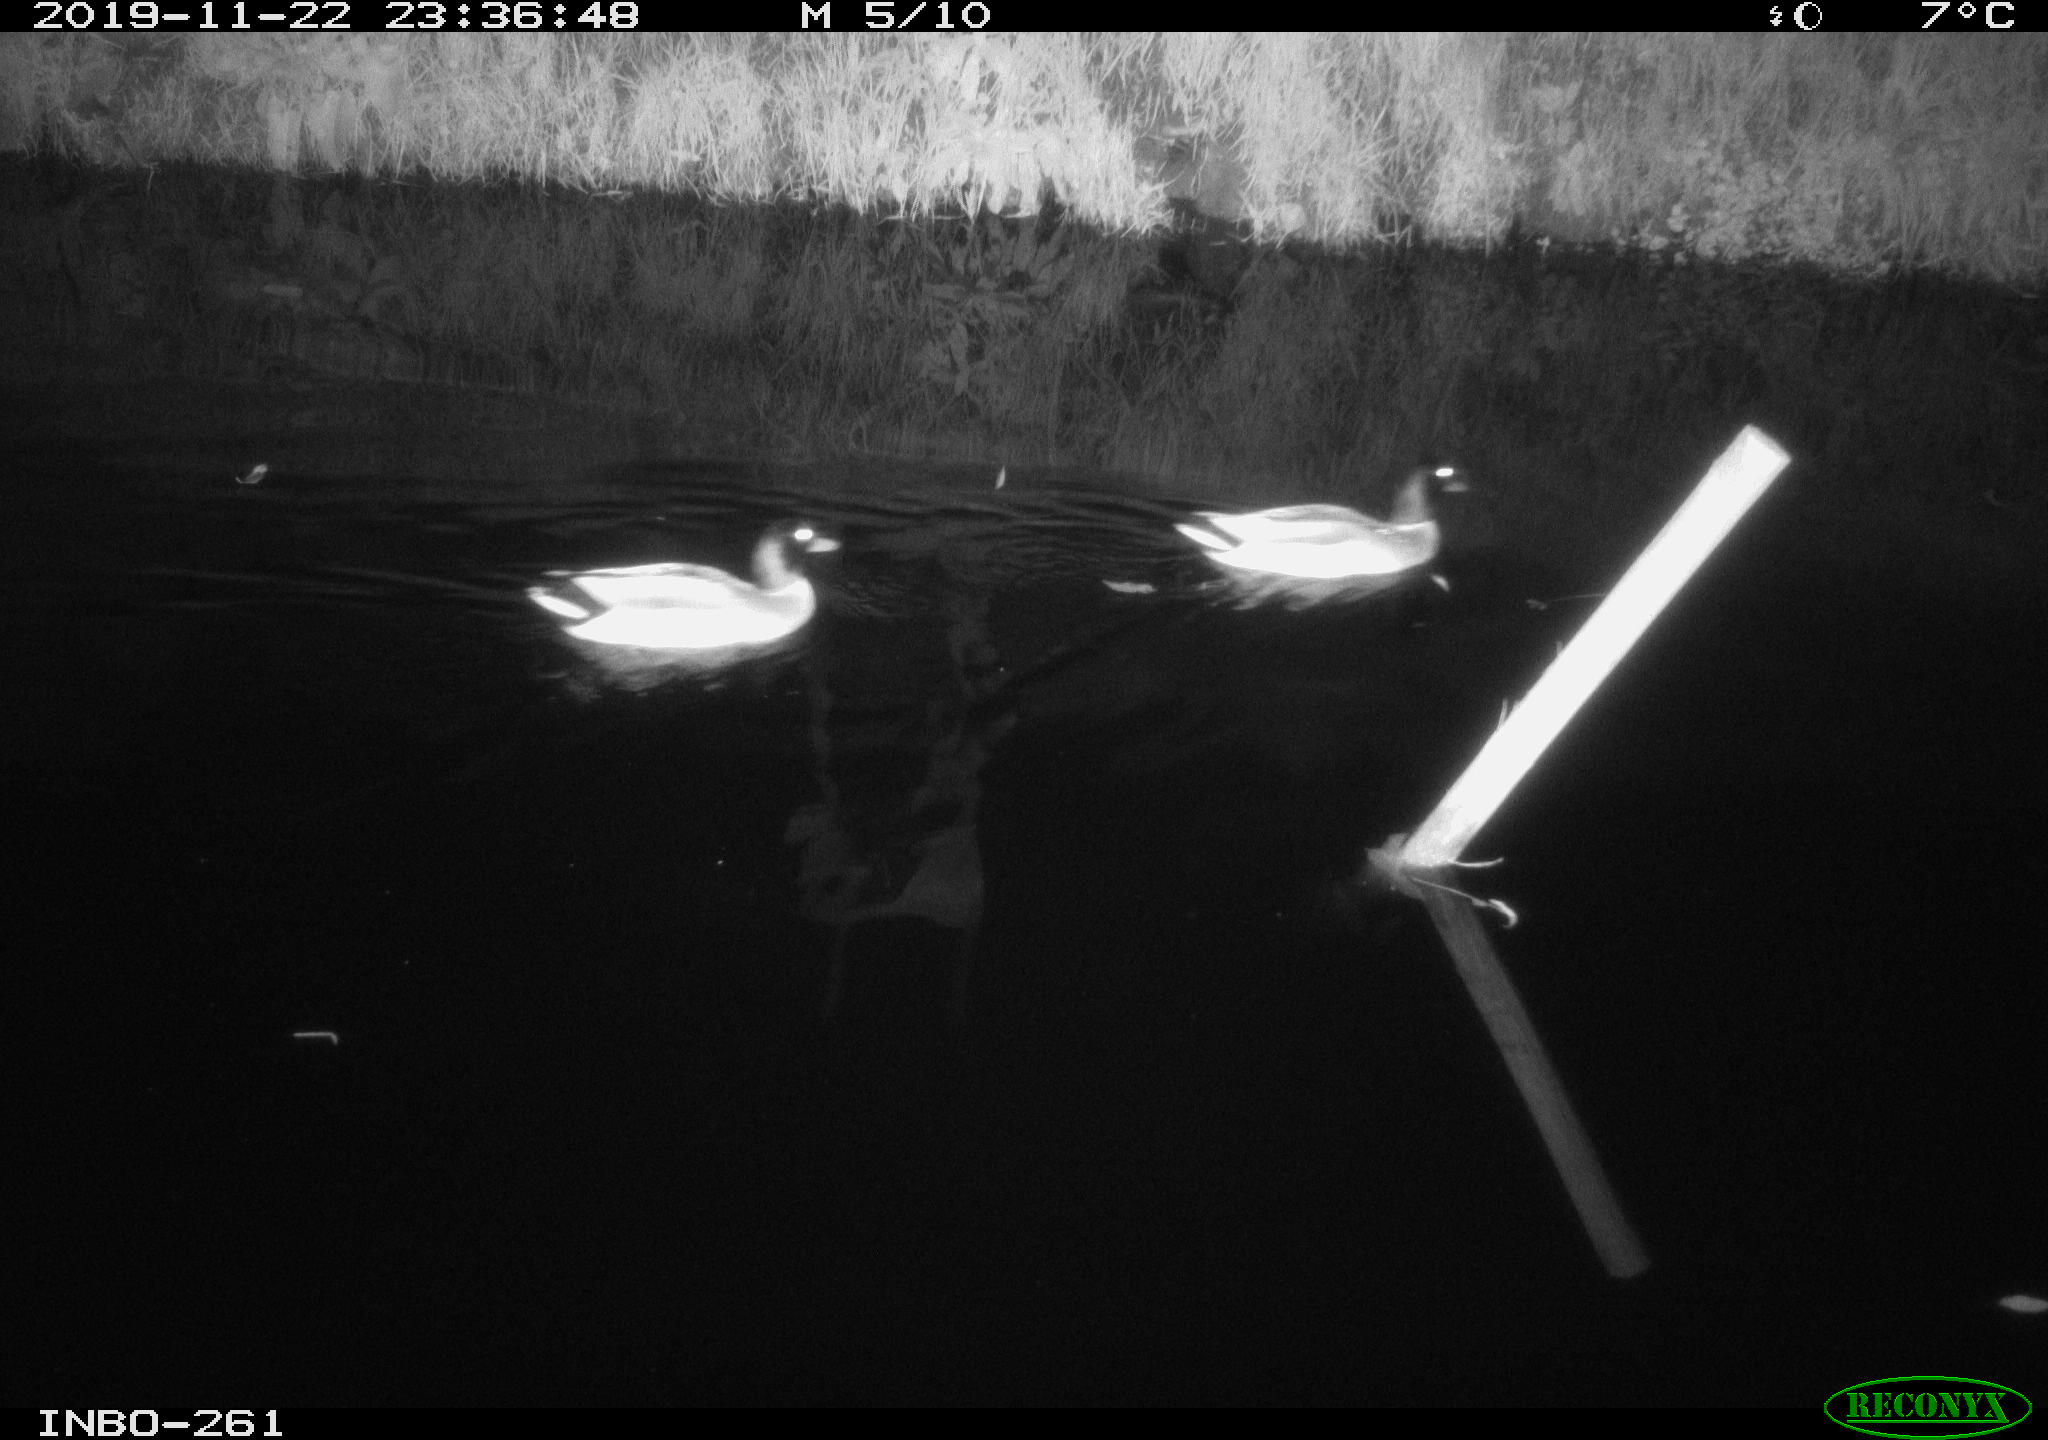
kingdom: Animalia
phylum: Chordata
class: Aves
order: Anseriformes
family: Anatidae
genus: Anas
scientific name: Anas platyrhynchos
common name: Mallard
